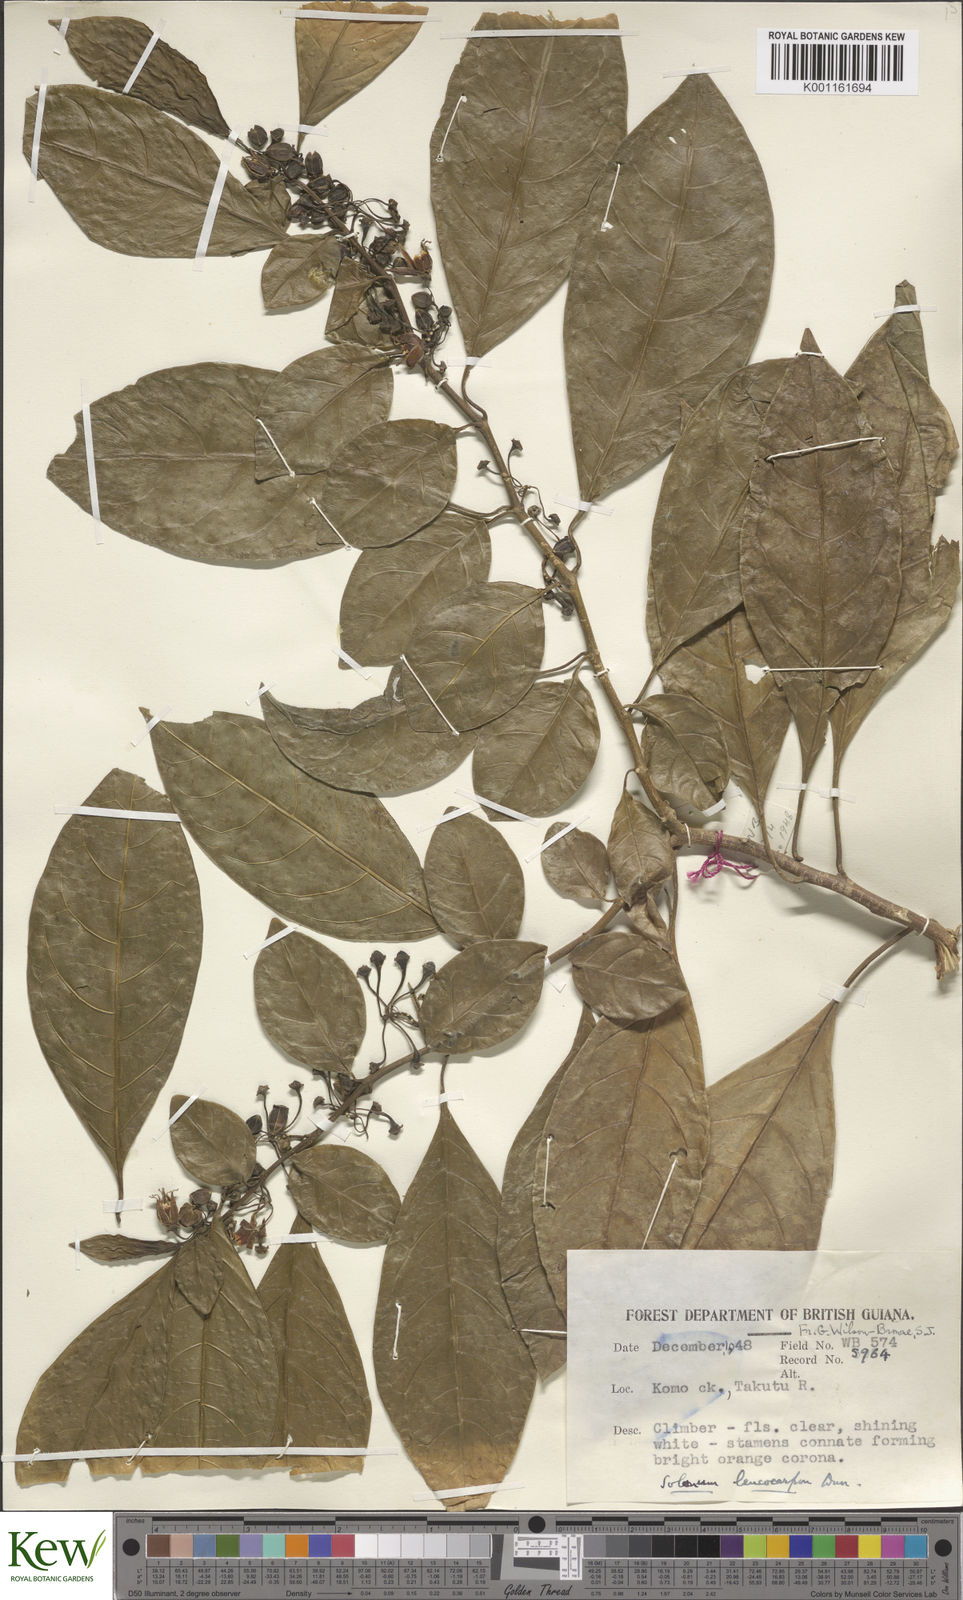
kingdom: Plantae
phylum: Tracheophyta
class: Magnoliopsida
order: Solanales
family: Solanaceae
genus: Solanum
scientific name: Solanum leucocarpon
